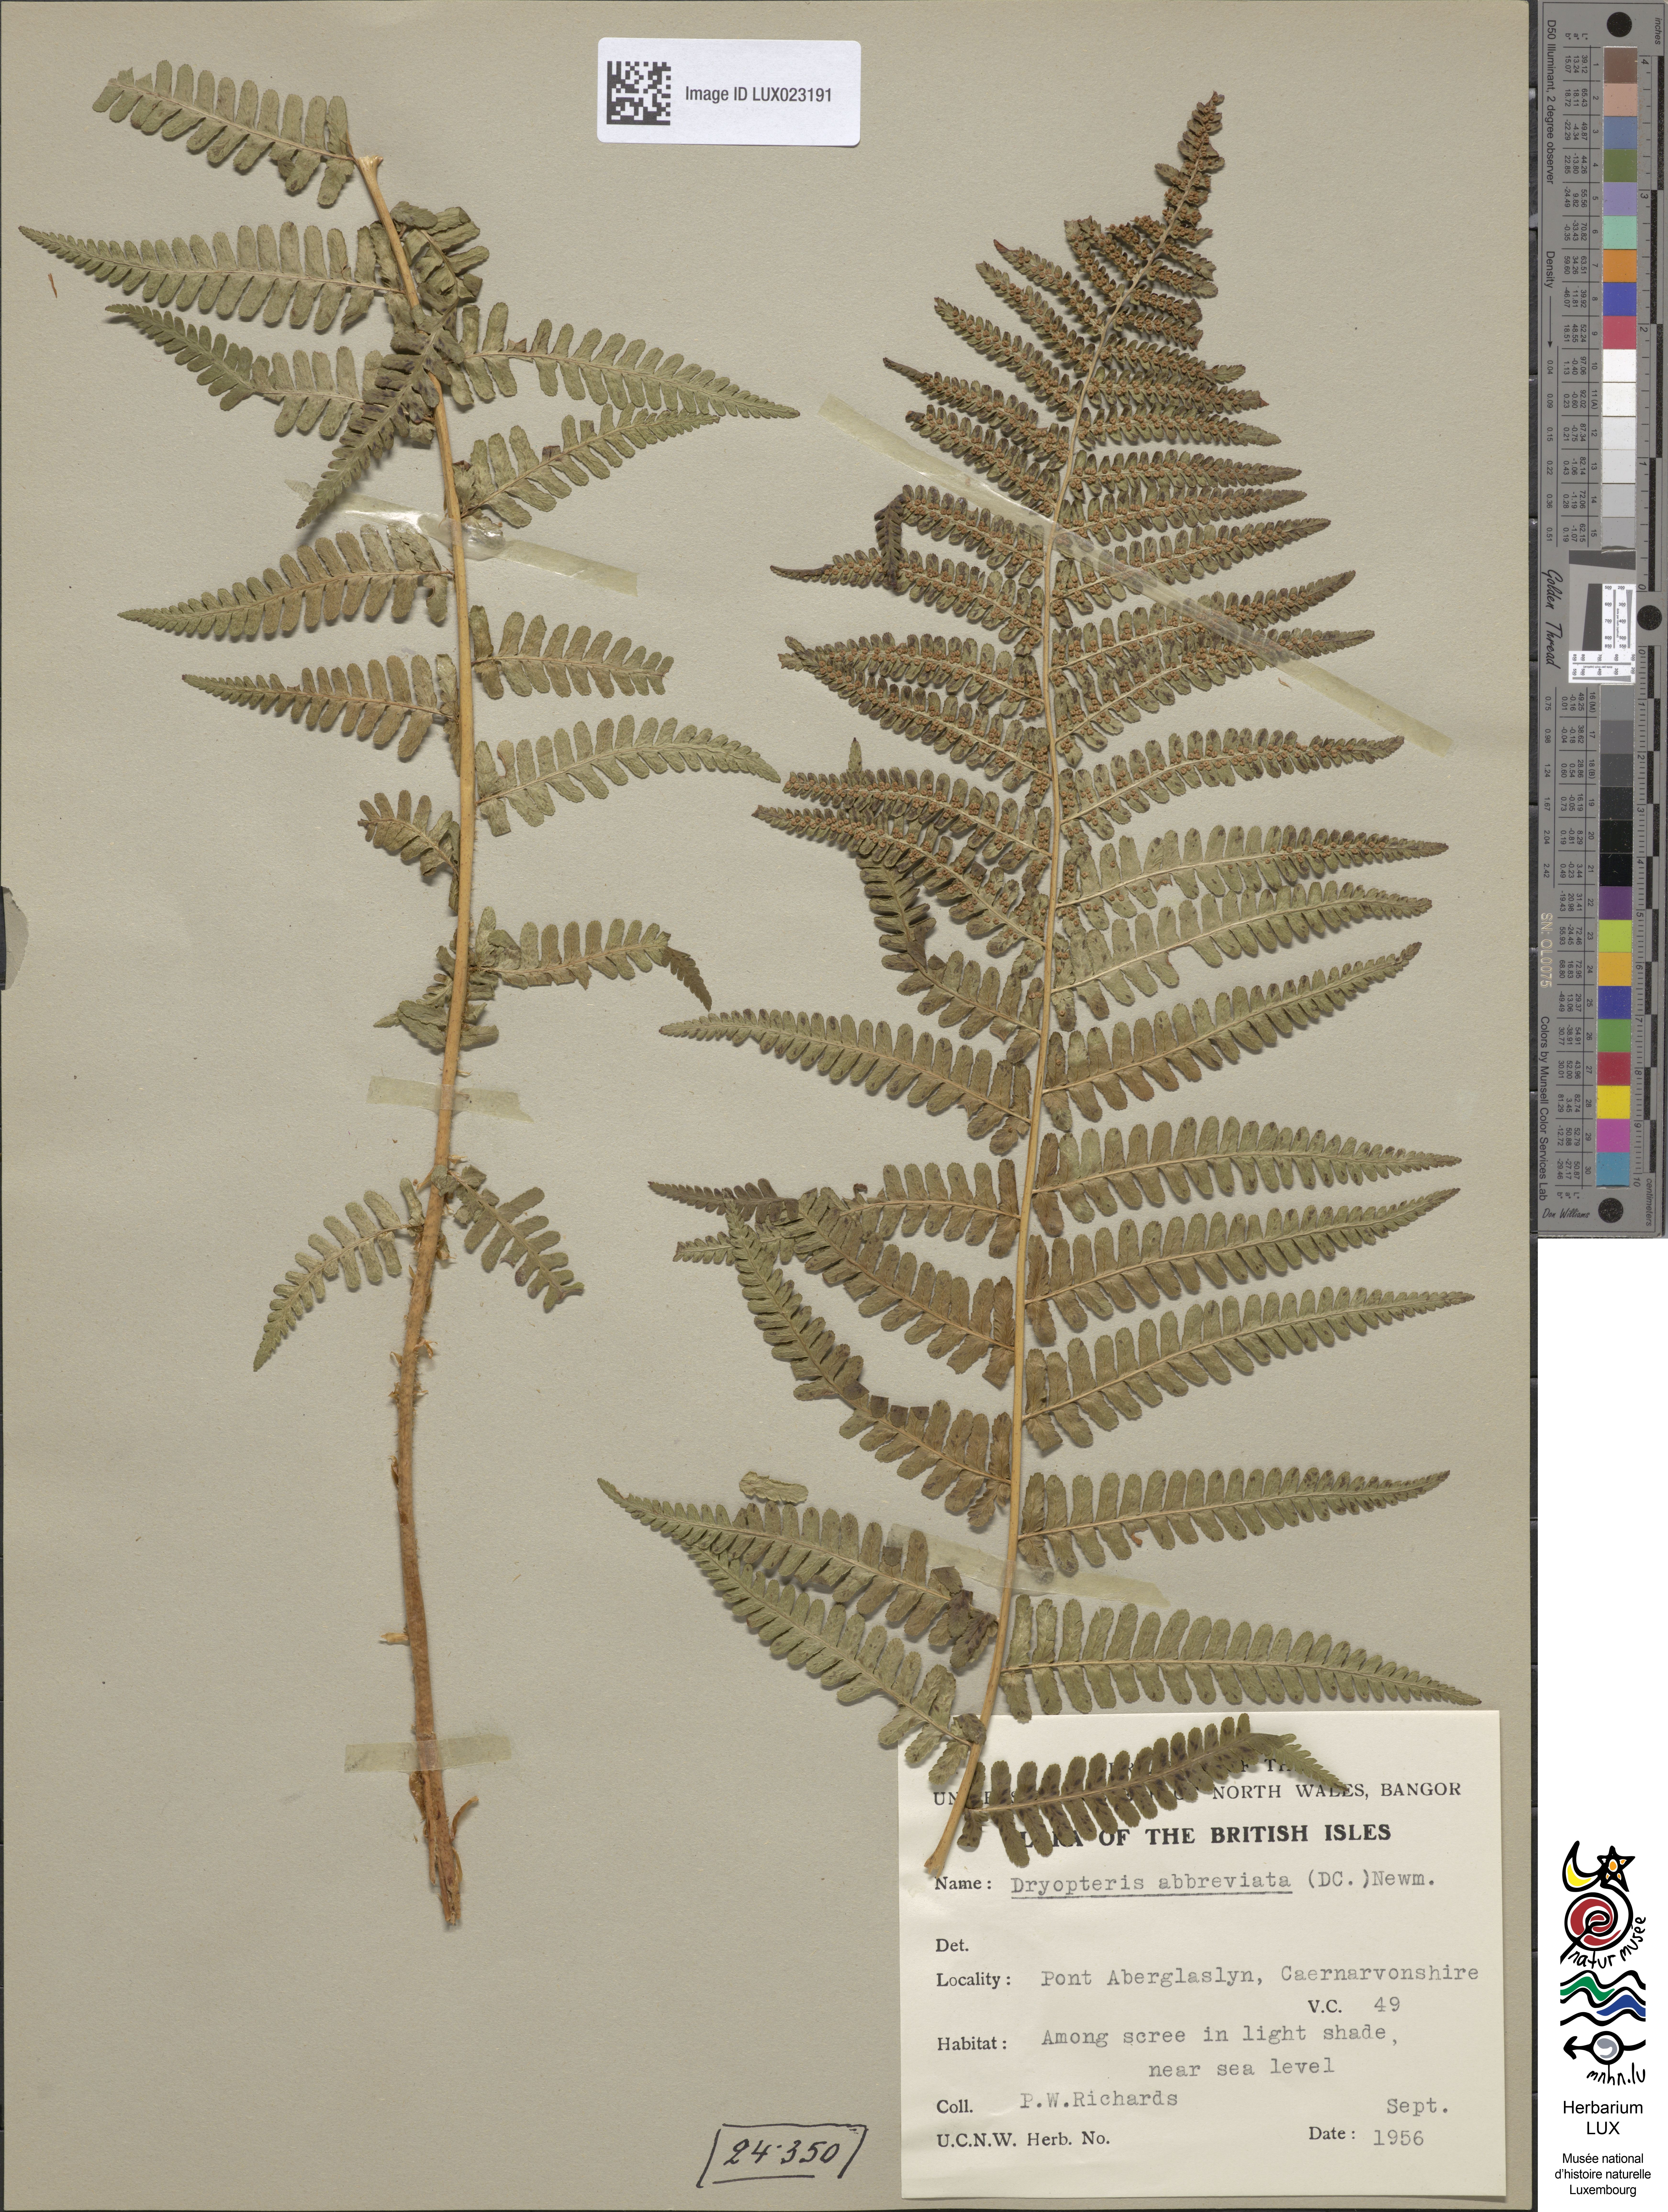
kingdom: Plantae
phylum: Tracheophyta
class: Polypodiopsida
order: Polypodiales
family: Dryopteridaceae
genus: Dryopteris
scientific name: Dryopteris borreri
